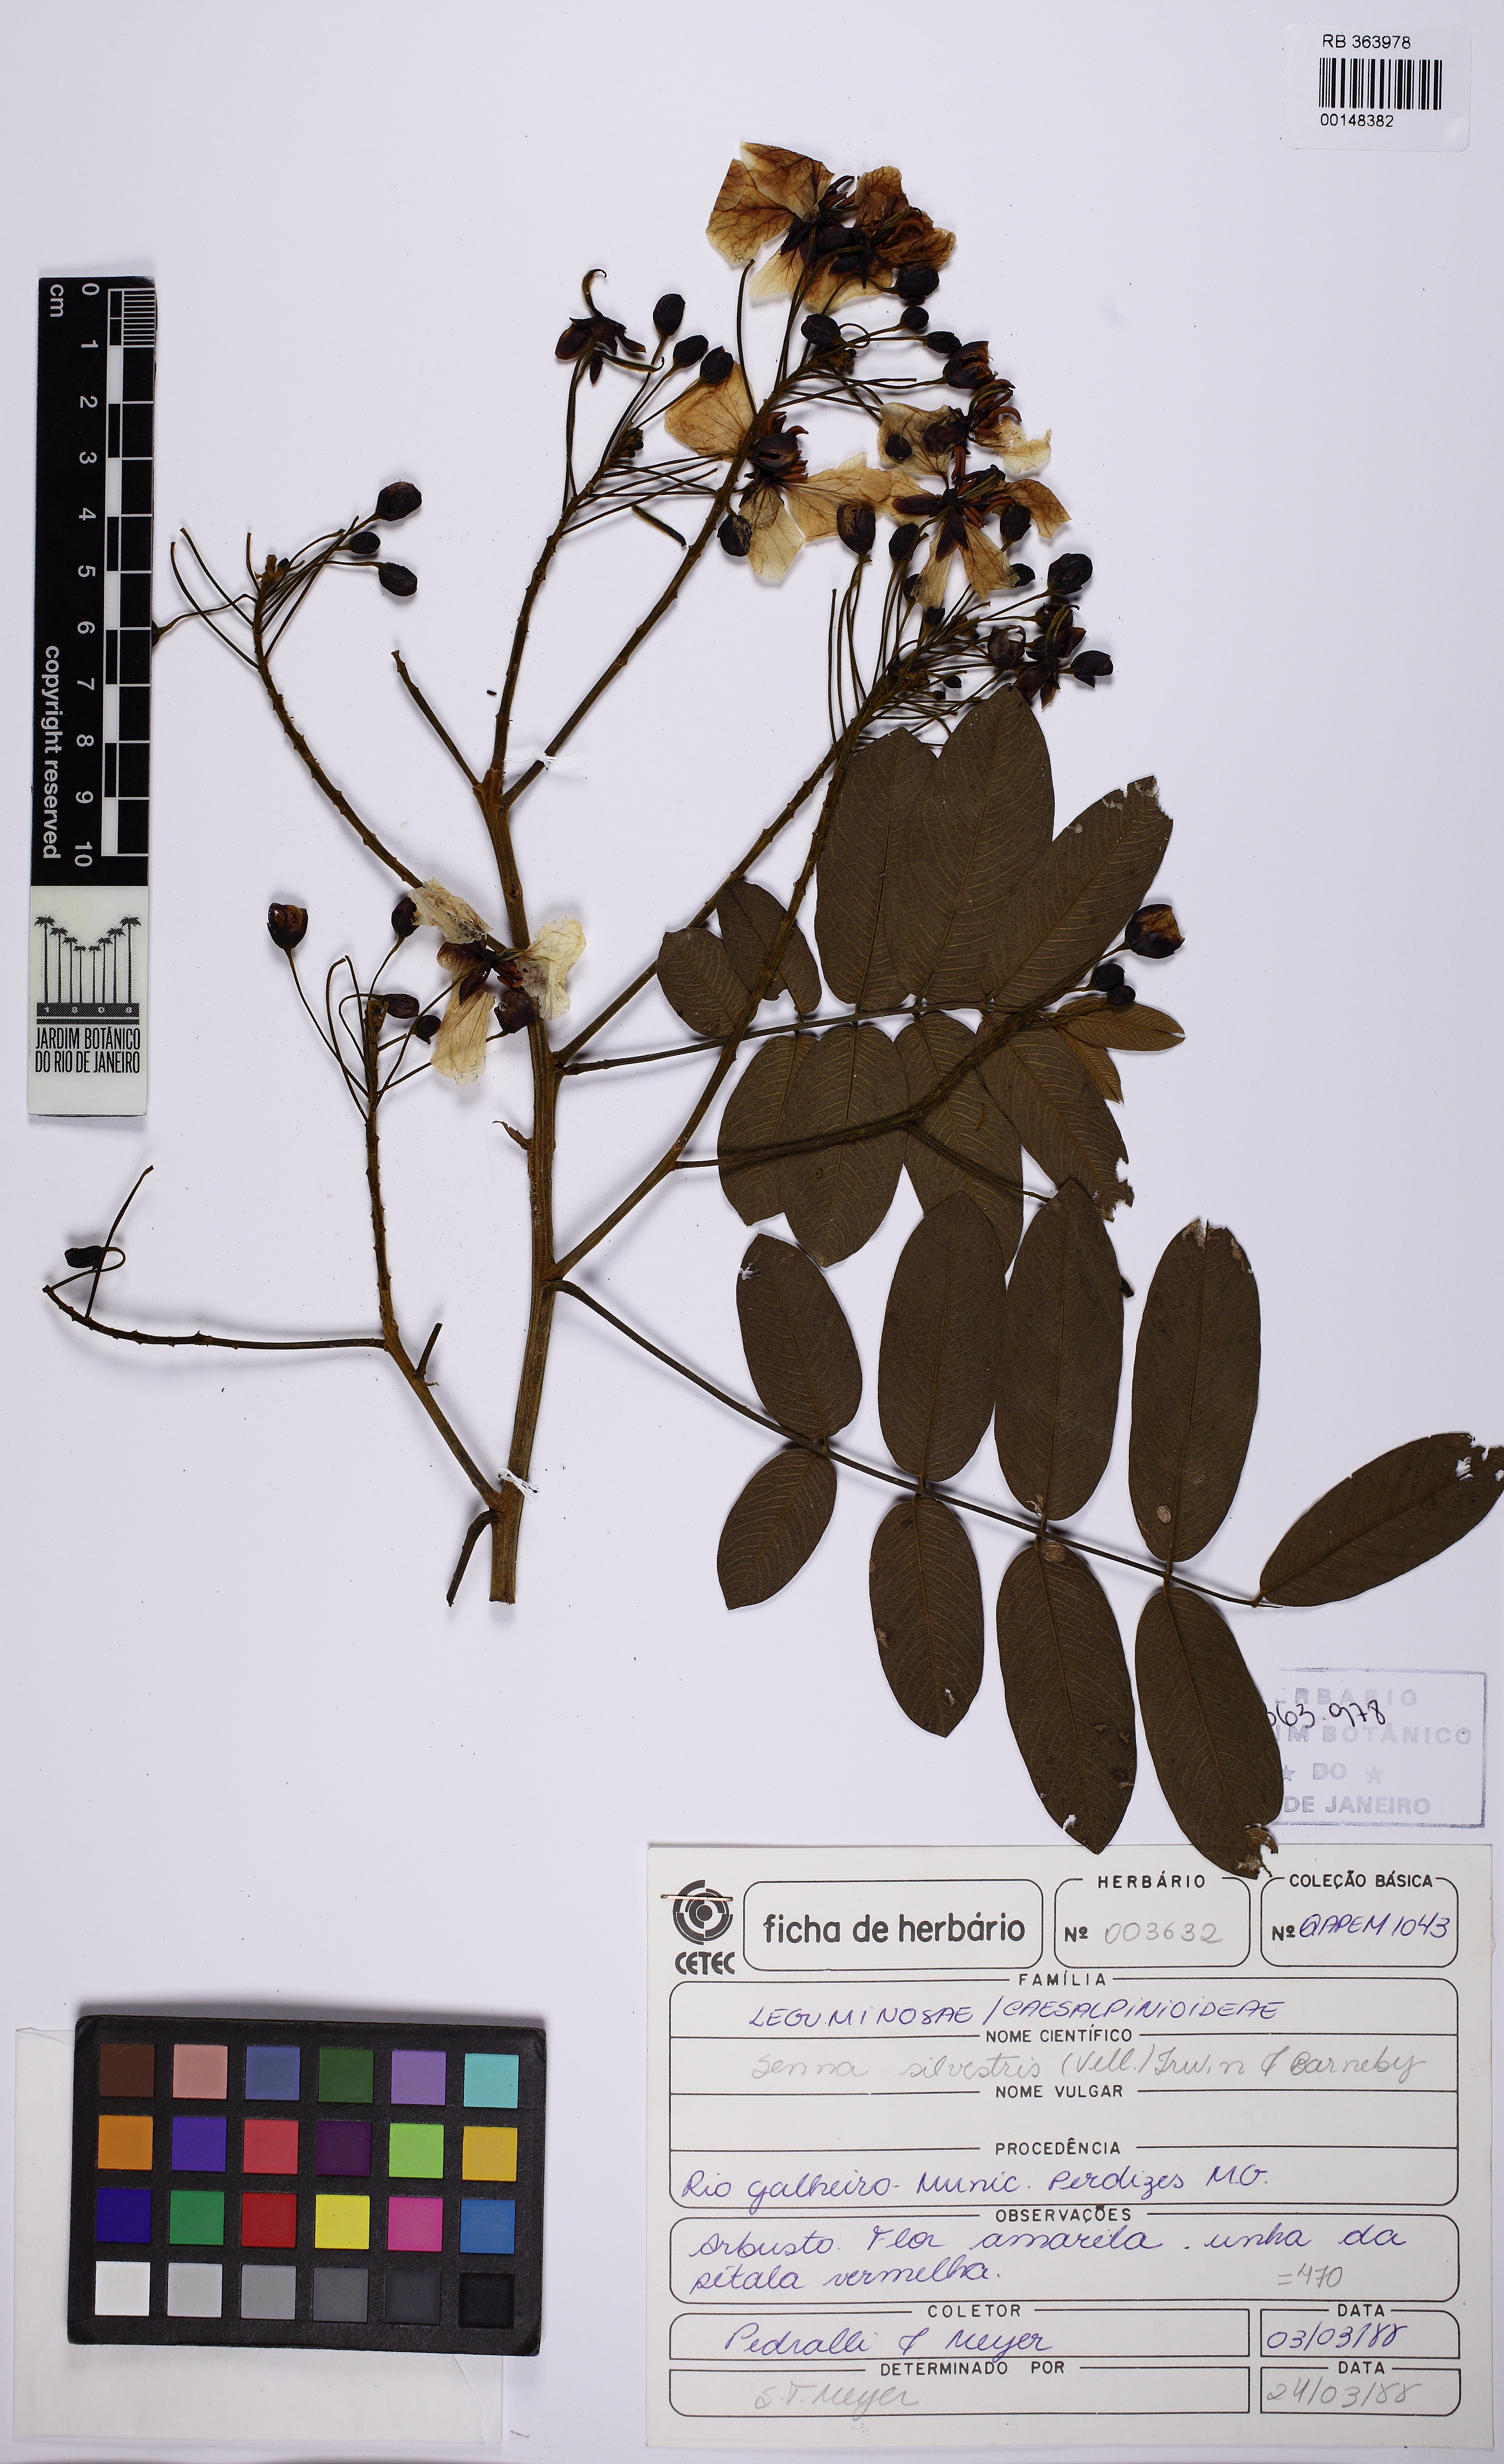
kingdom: Plantae
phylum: Tracheophyta
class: Magnoliopsida
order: Fabales
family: Fabaceae
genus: Senna
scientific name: Senna silvestris
